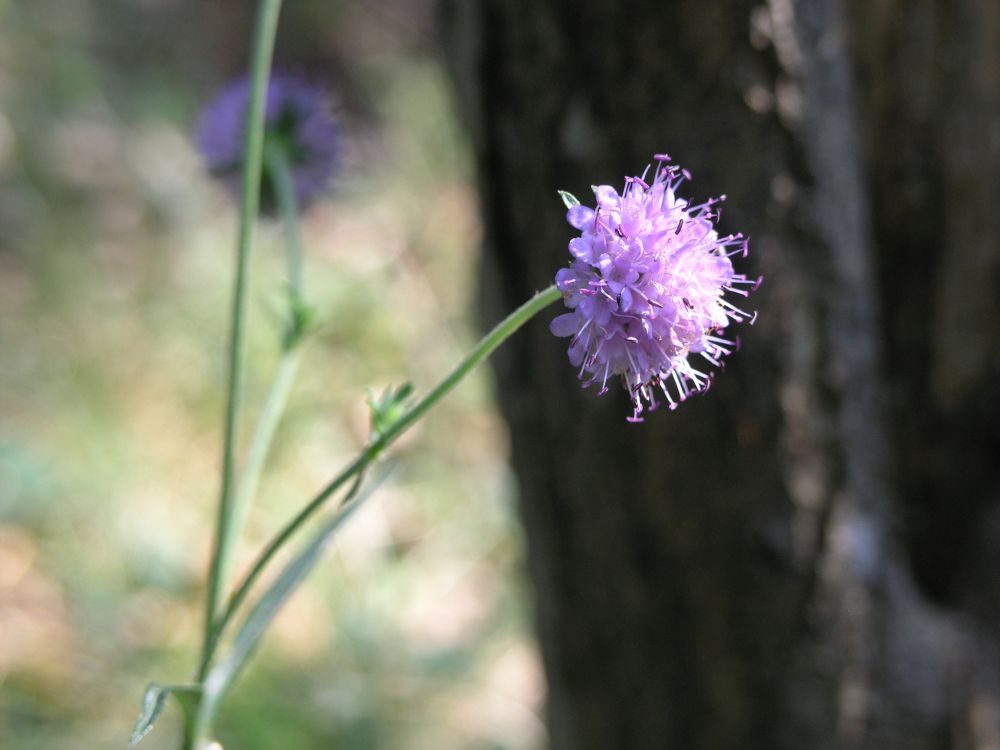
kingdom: Plantae
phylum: Tracheophyta
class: Magnoliopsida
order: Dipsacales
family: Caprifoliaceae
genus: Succisa
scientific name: Succisa pratensis
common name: Devil's-bit
